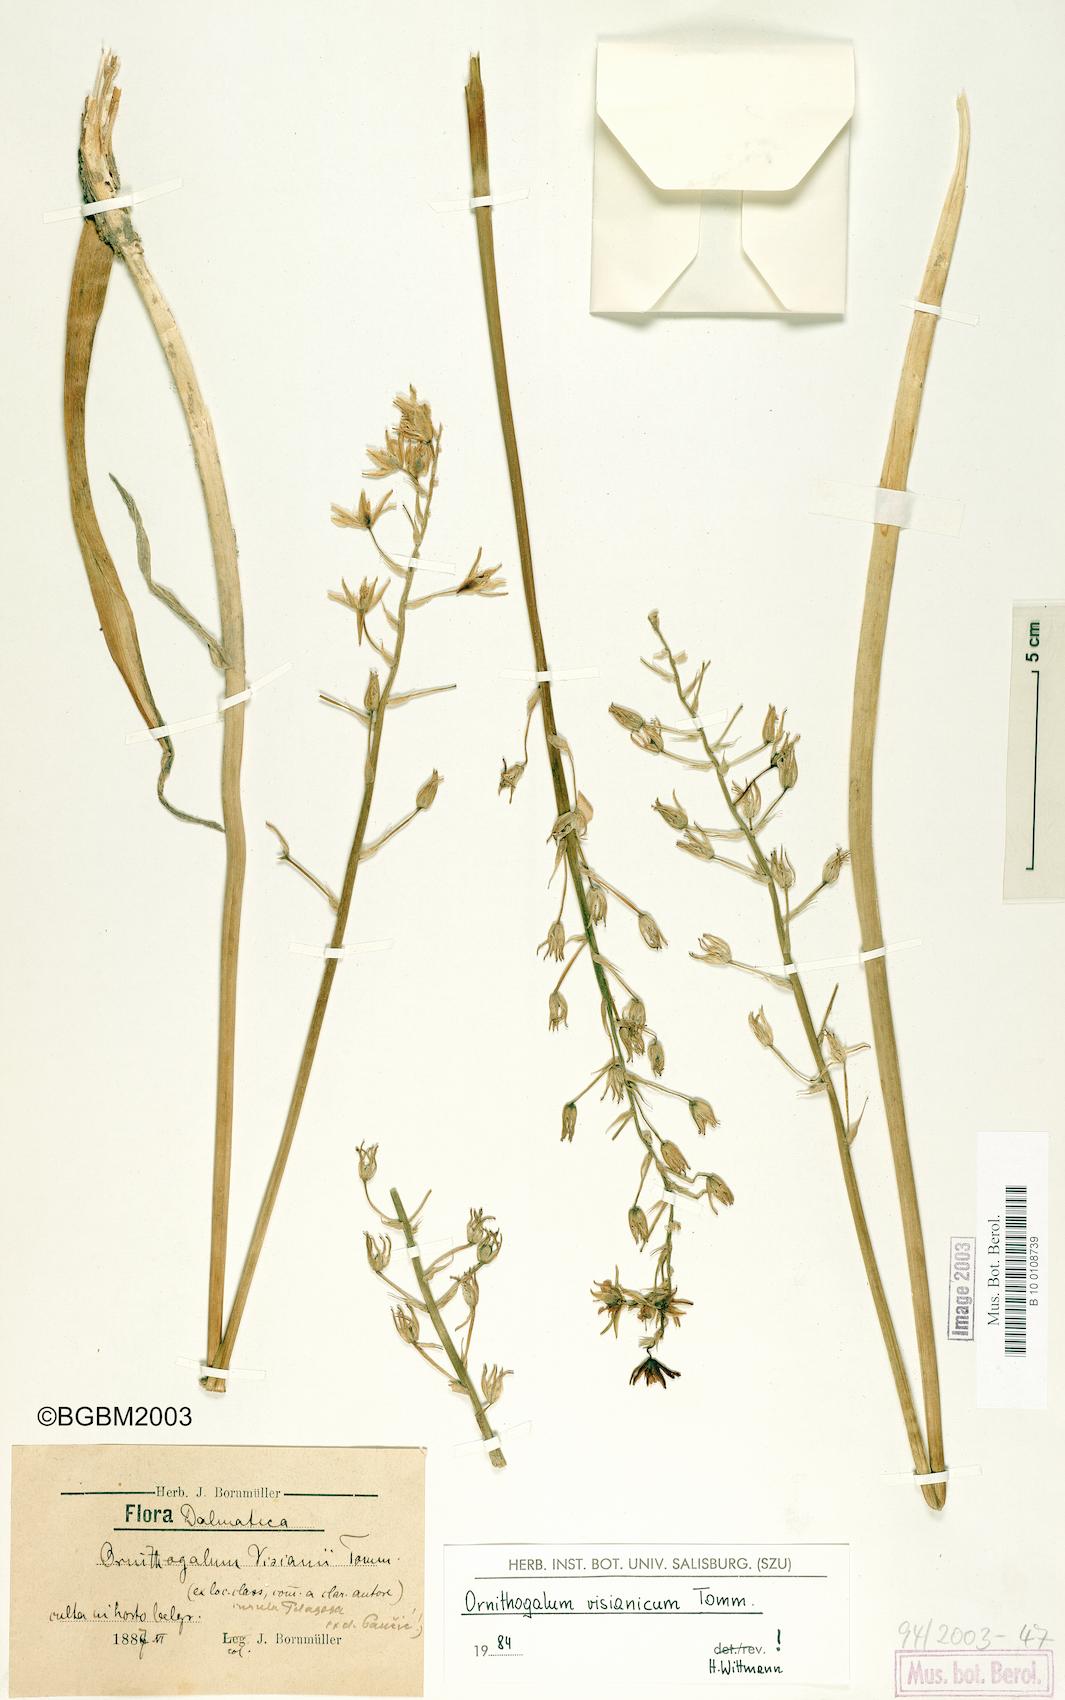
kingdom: Plantae
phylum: Tracheophyta
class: Liliopsida
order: Asparagales
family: Asparagaceae
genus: Ornithogalum
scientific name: Ornithogalum visianicum
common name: Visiani's star of bethlehem
